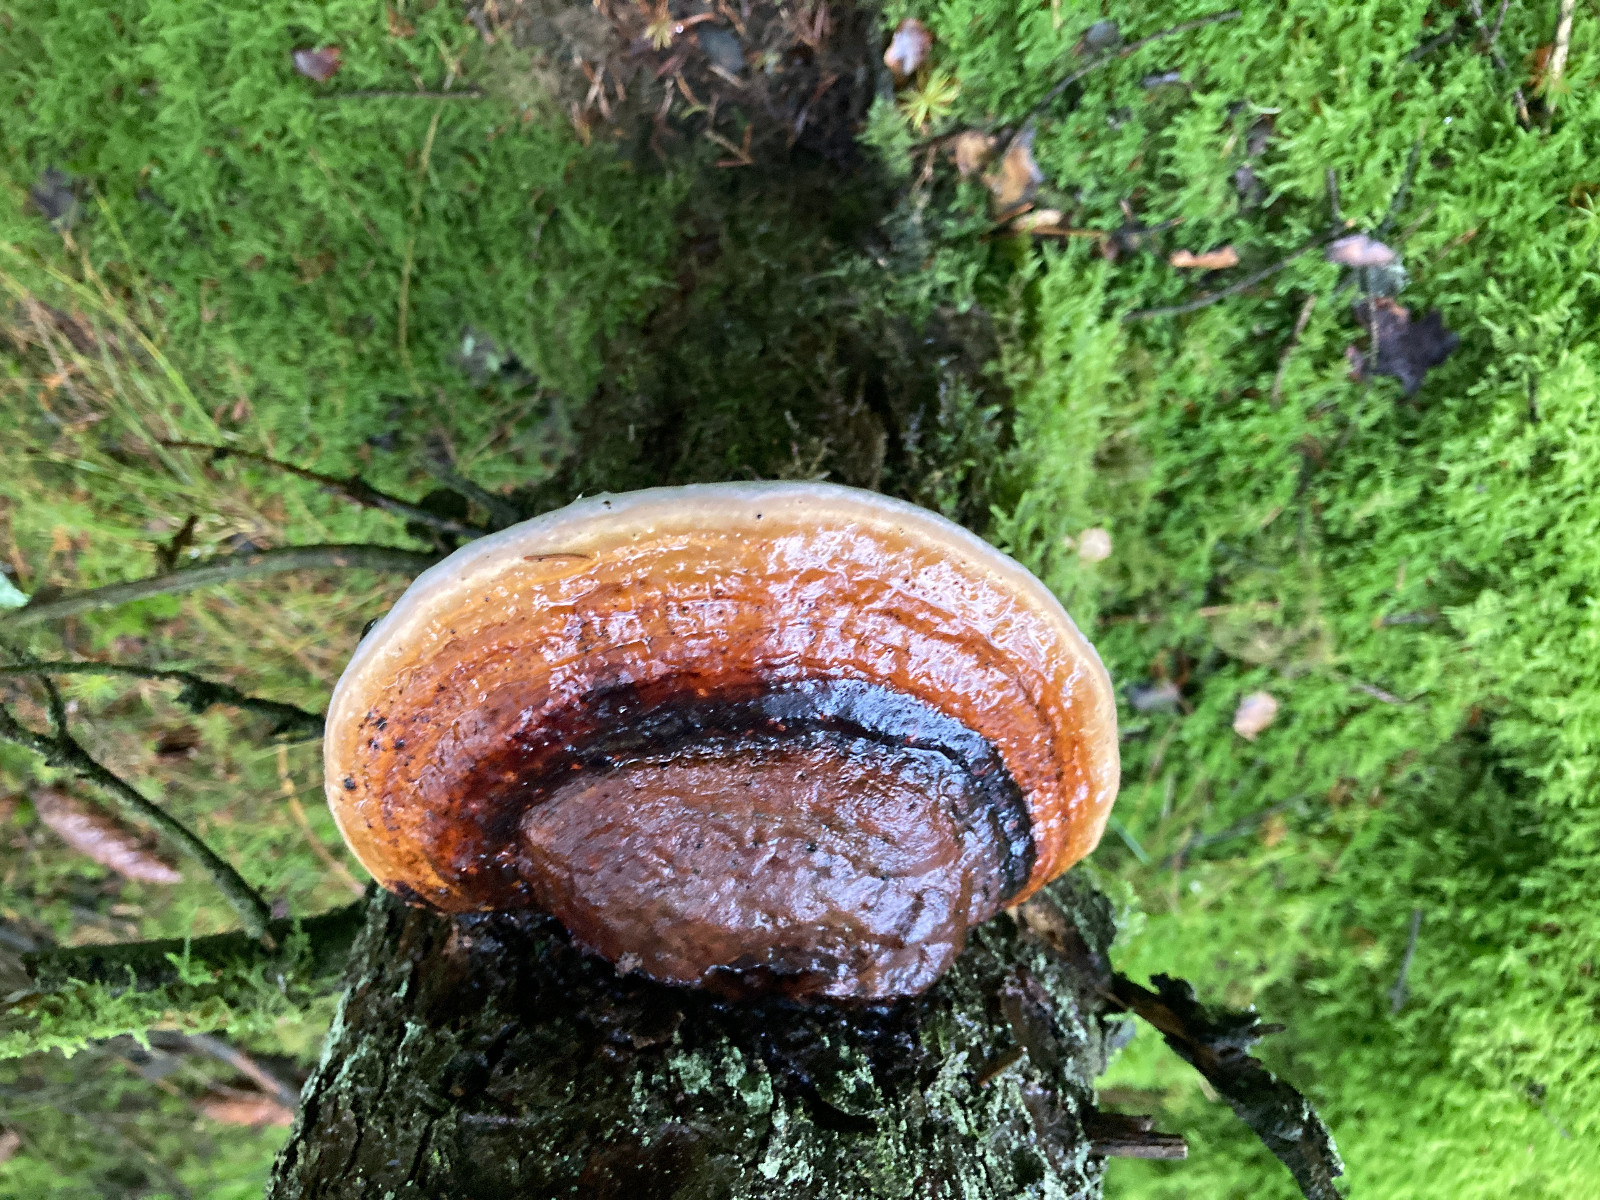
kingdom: Fungi
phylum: Basidiomycota
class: Agaricomycetes
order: Polyporales
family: Fomitopsidaceae
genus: Fomitopsis
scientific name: Fomitopsis pinicola
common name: randbæltet hovporesvamp
